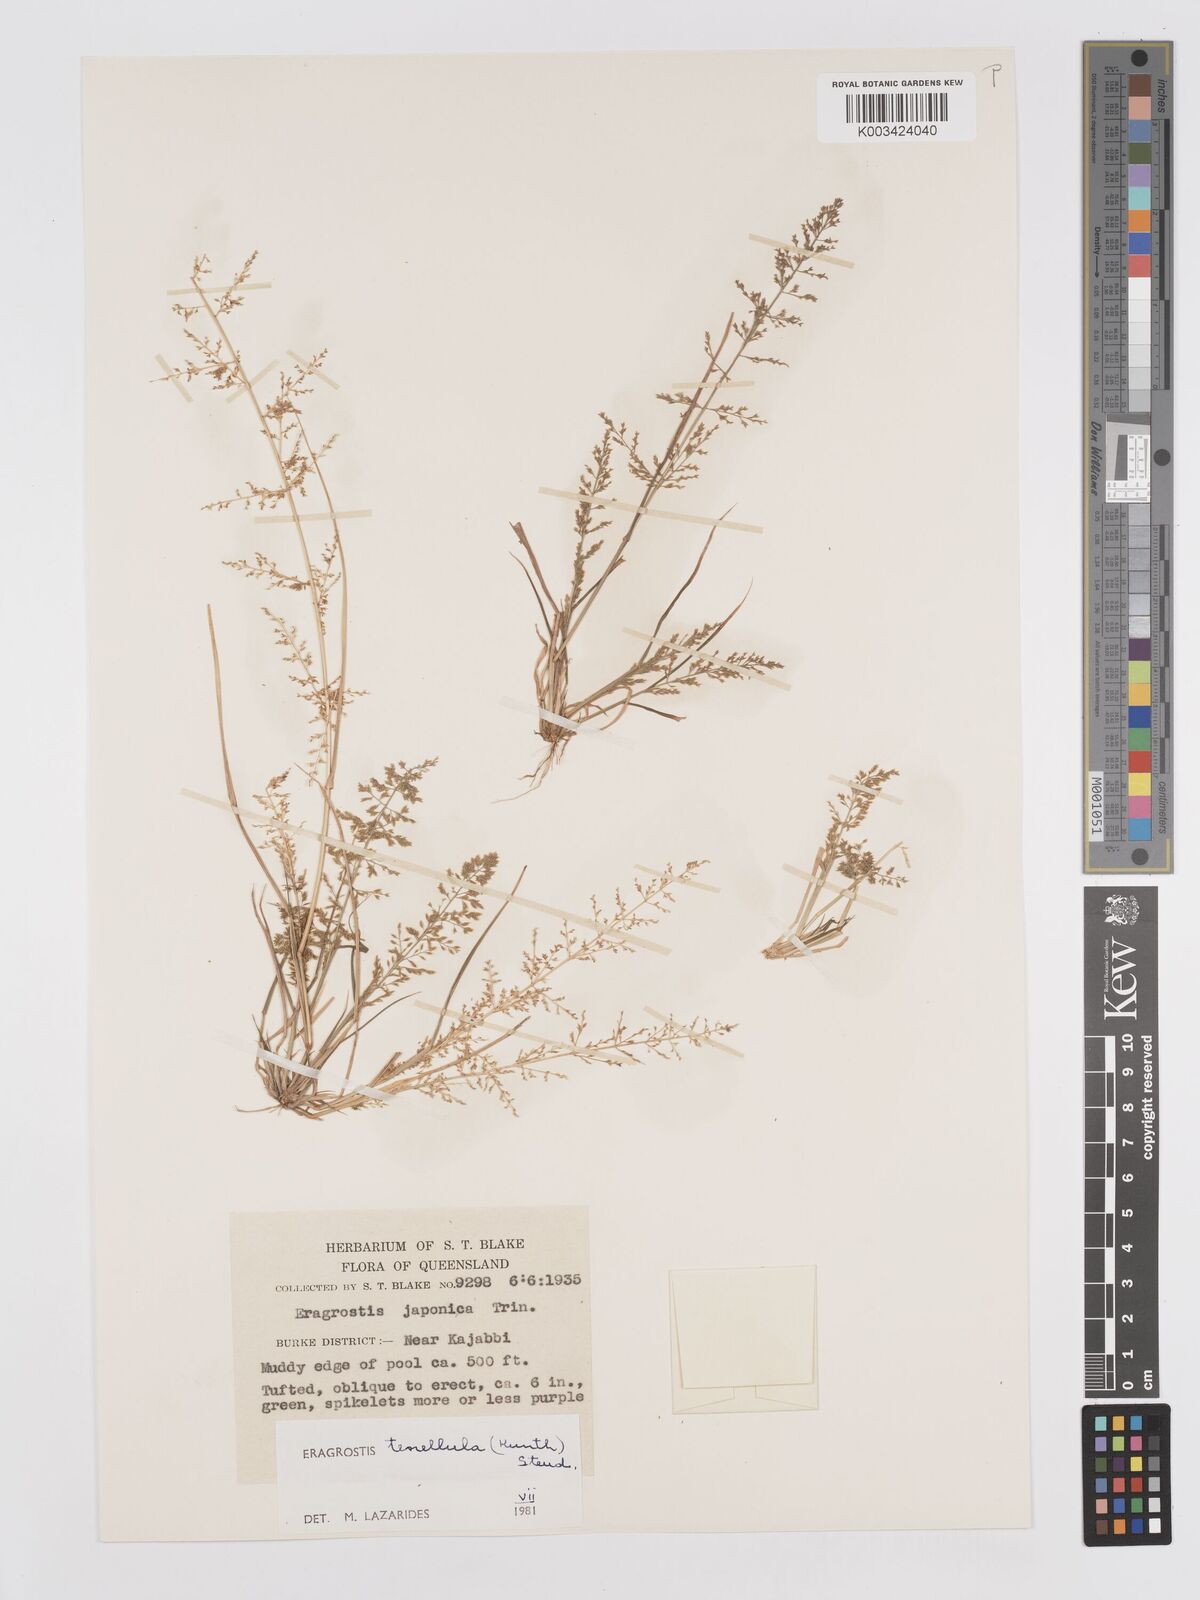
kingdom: Plantae
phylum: Tracheophyta
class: Liliopsida
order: Poales
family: Poaceae
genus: Eragrostis
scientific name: Eragrostis tenellula
